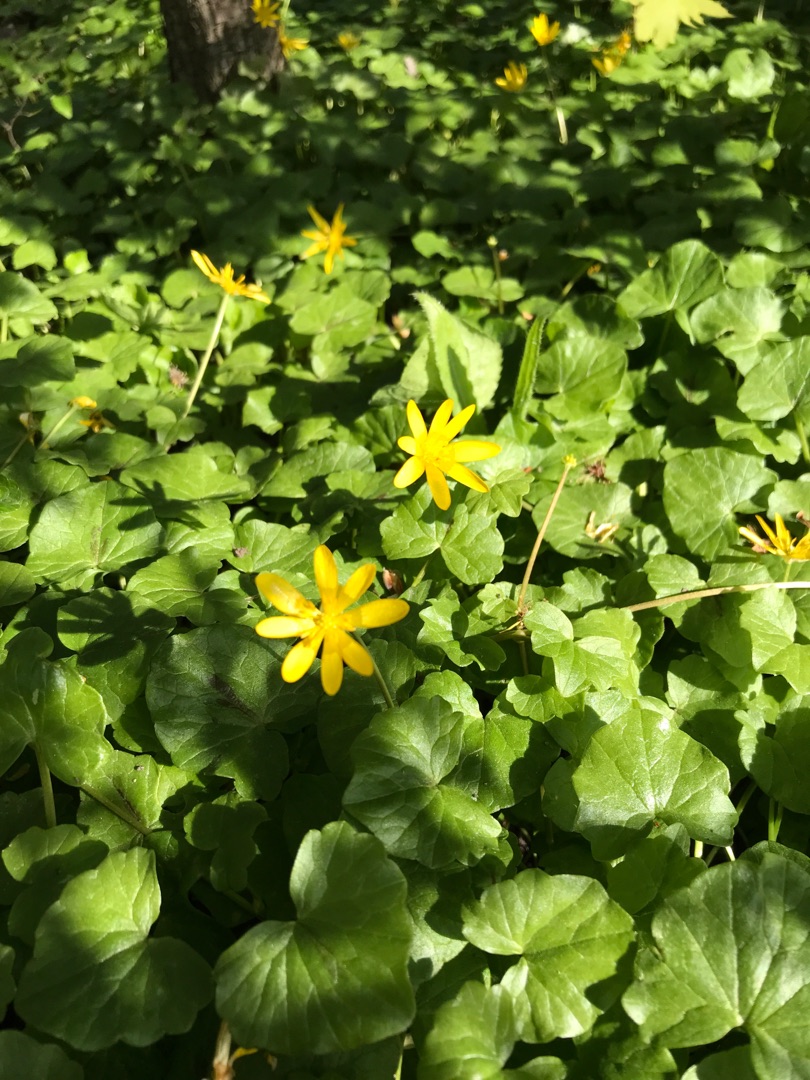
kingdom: Plantae
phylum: Tracheophyta
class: Magnoliopsida
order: Ranunculales
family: Ranunculaceae
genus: Ficaria
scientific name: Ficaria verna
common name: Vorterod
